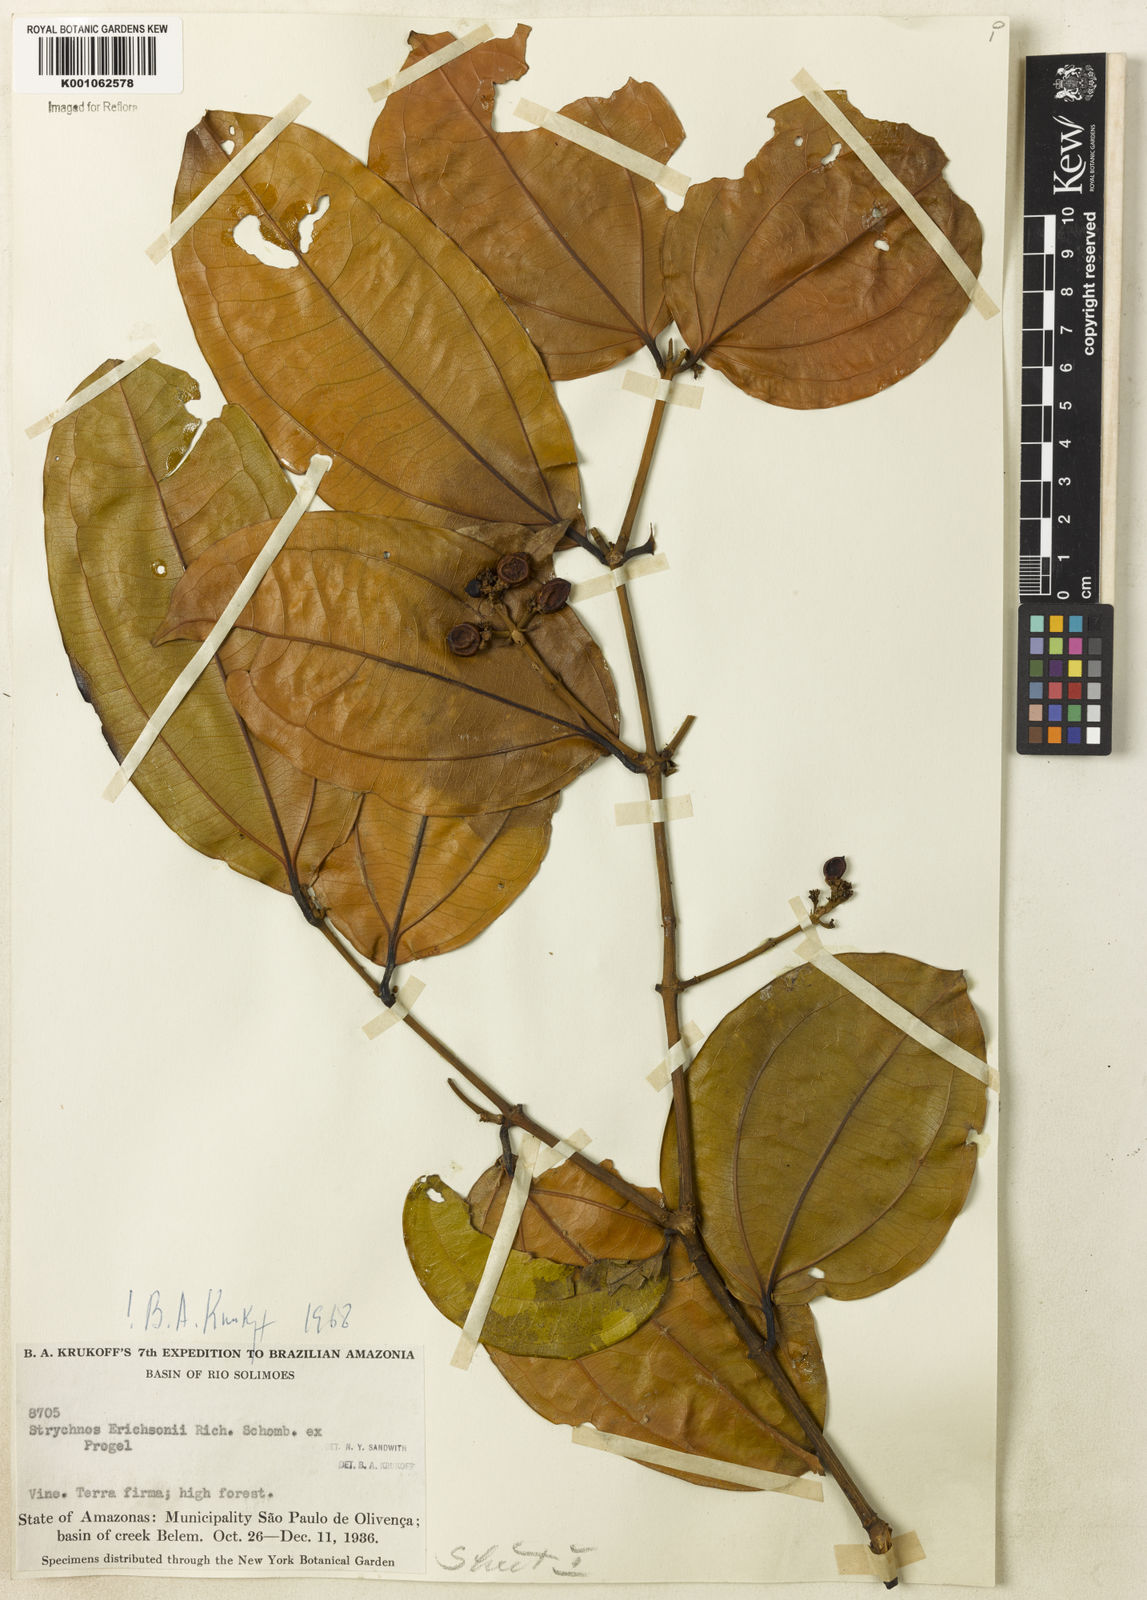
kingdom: Plantae
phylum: Tracheophyta
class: Magnoliopsida
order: Gentianales
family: Loganiaceae
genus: Strychnos
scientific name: Strychnos erichsonii
